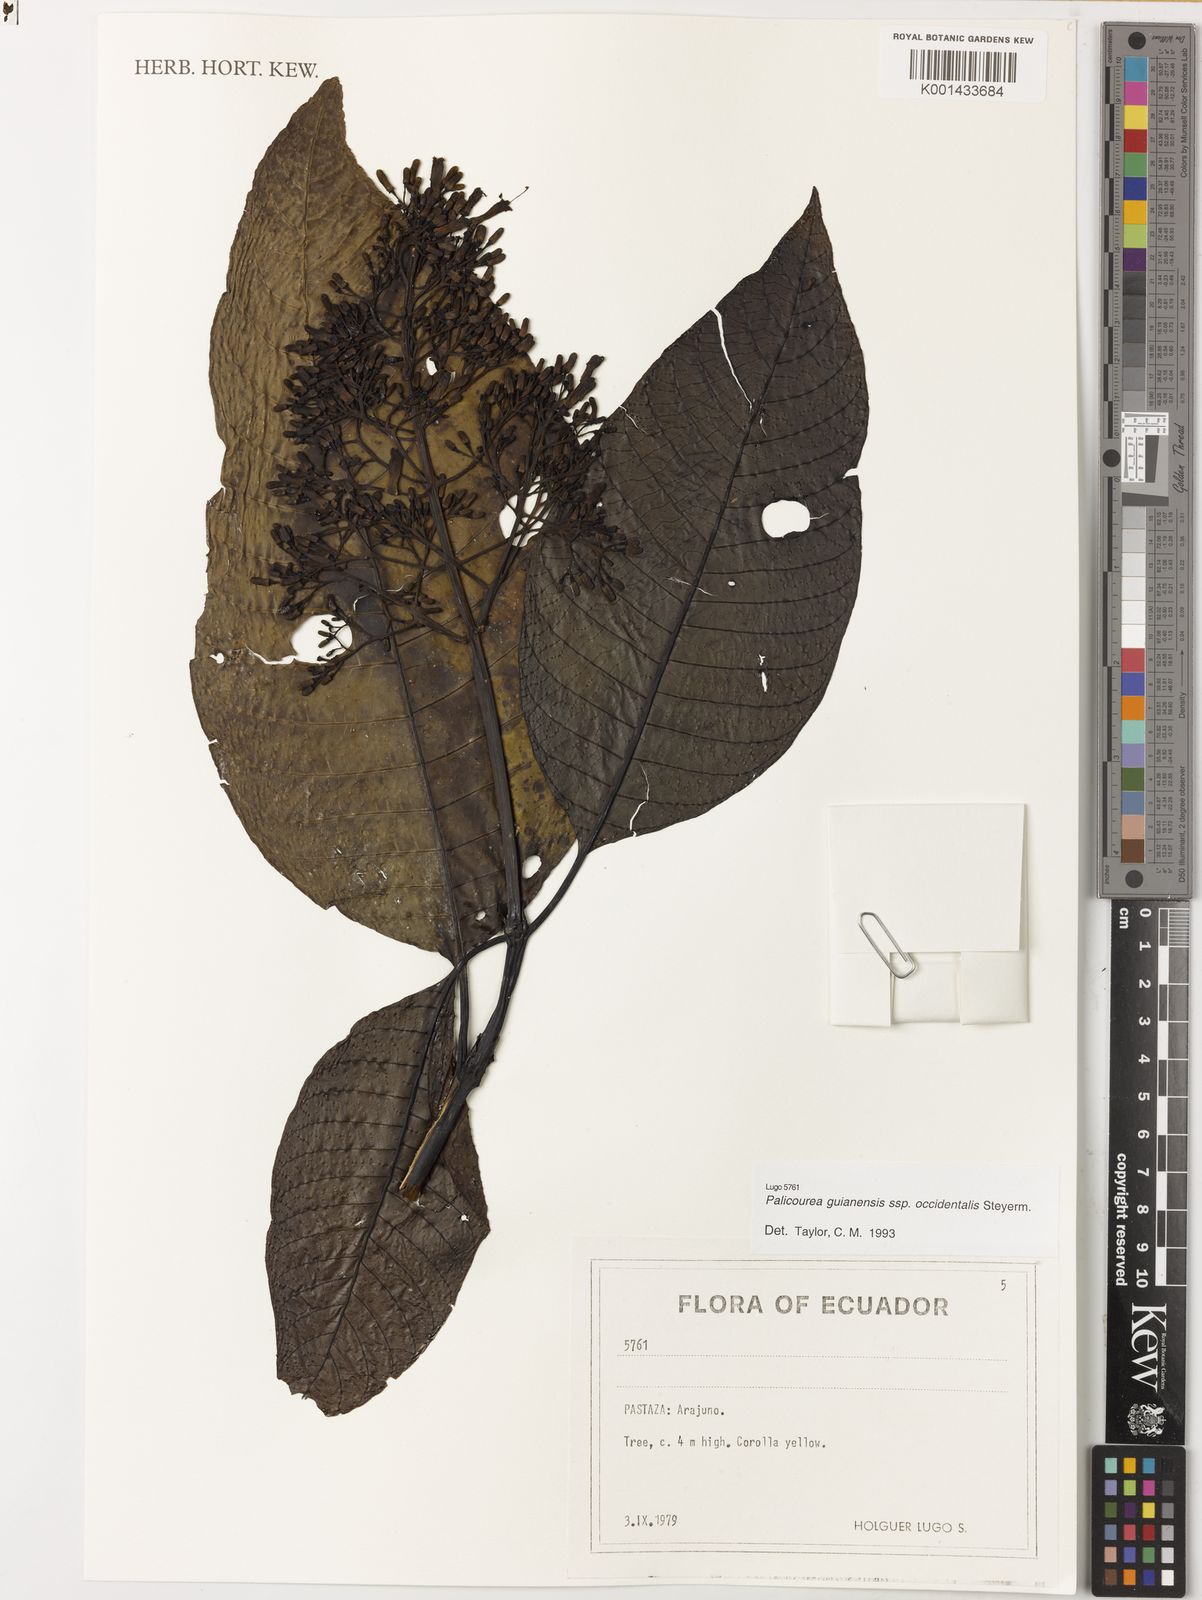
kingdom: Plantae
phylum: Tracheophyta
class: Magnoliopsida
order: Gentianales
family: Rubiaceae
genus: Palicourea
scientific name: Palicourea guianensis
